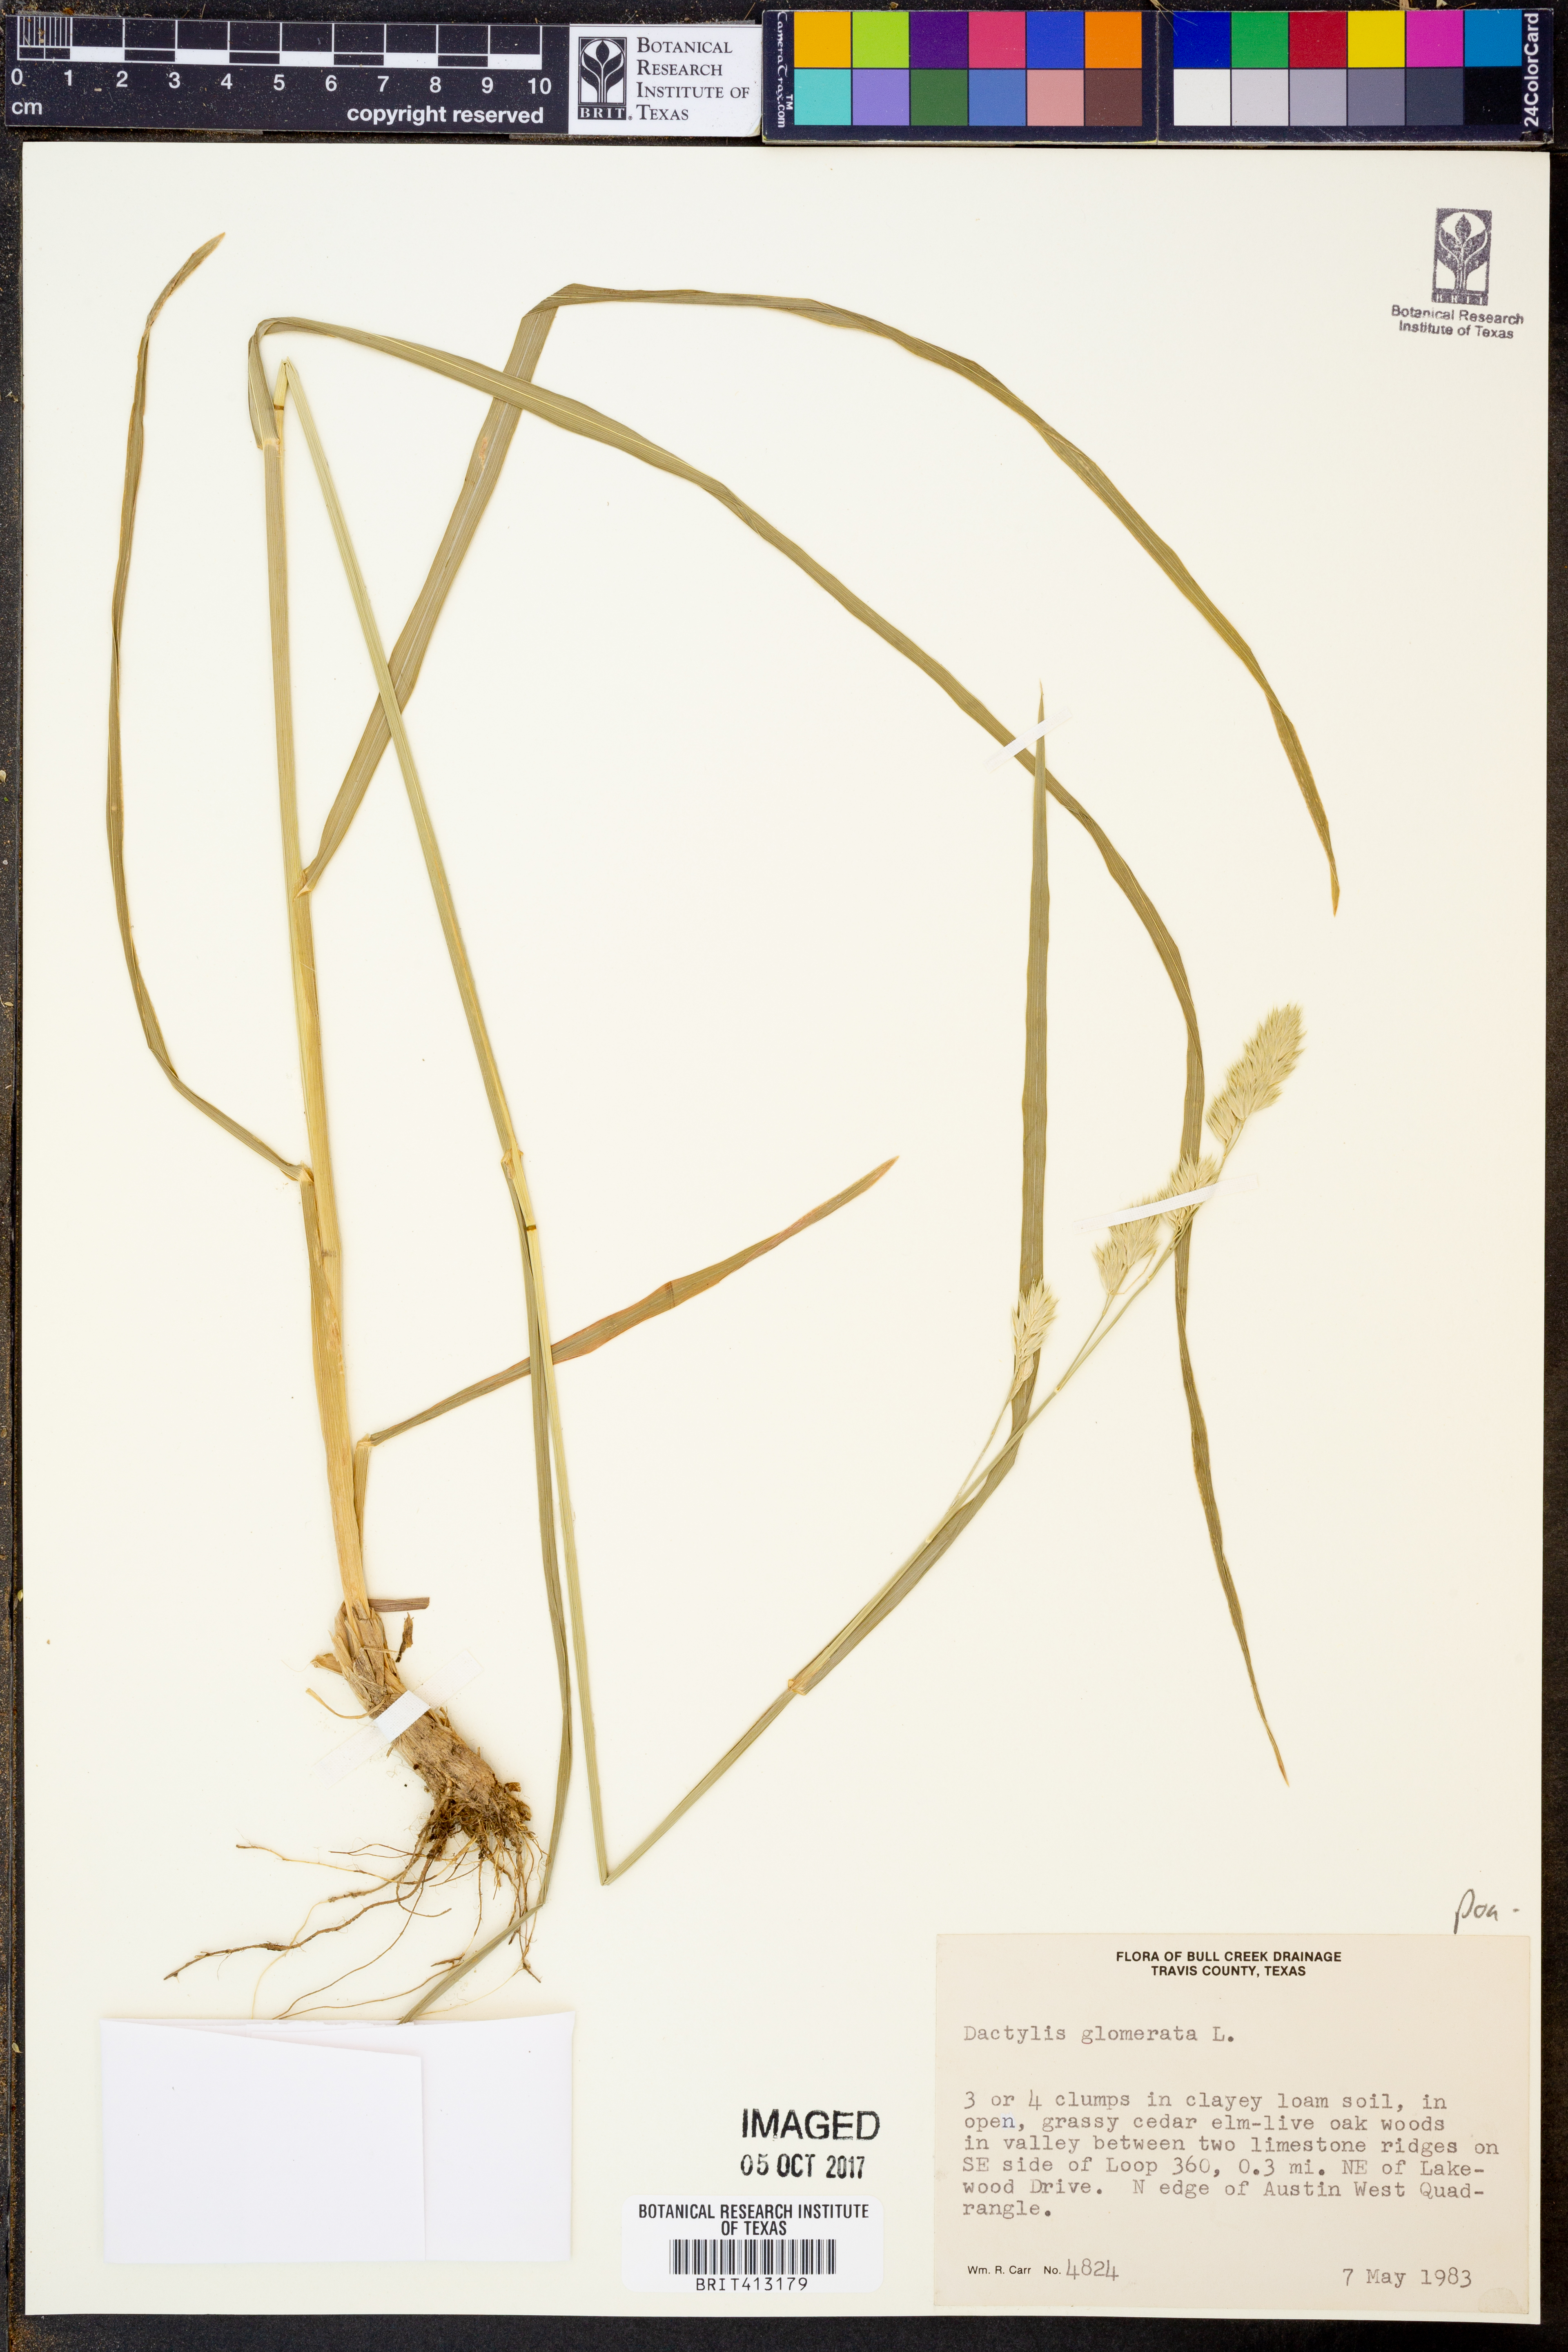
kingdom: Plantae
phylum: Tracheophyta
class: Liliopsida
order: Poales
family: Poaceae
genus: Dactylis
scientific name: Dactylis glomerata
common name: Orchardgrass
